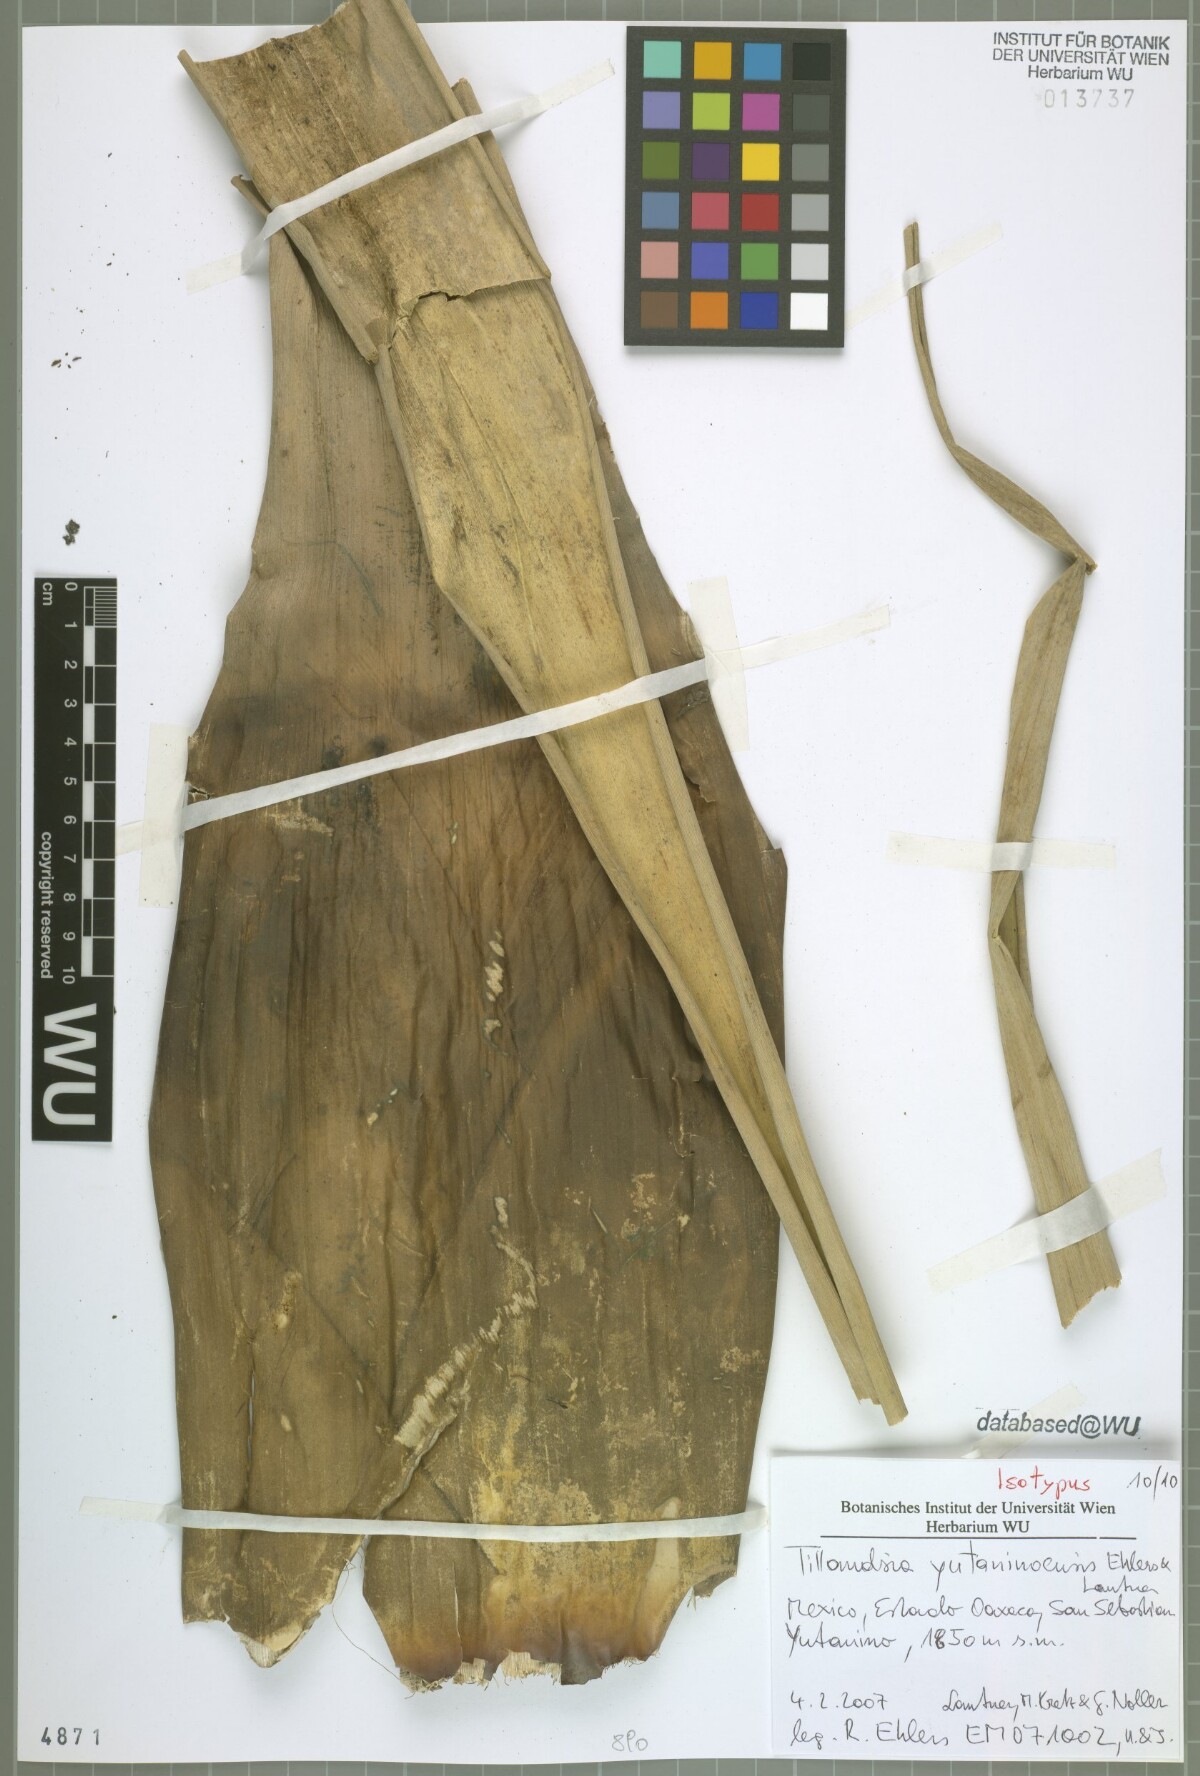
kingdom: Plantae
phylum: Tracheophyta
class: Liliopsida
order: Poales
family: Bromeliaceae
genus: Tillandsia
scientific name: Tillandsia yutaninoensis
